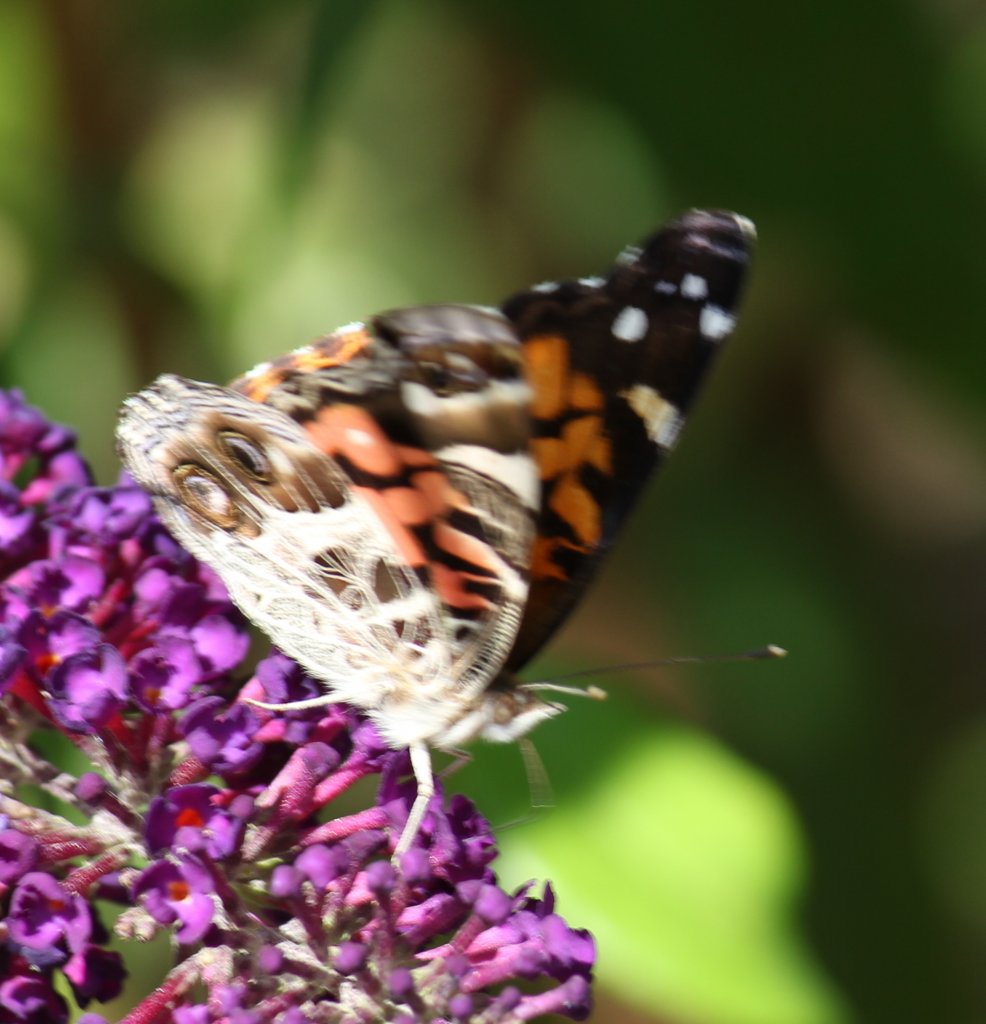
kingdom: Animalia
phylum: Arthropoda
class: Insecta
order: Lepidoptera
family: Nymphalidae
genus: Vanessa
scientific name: Vanessa virginiensis
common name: American Lady
